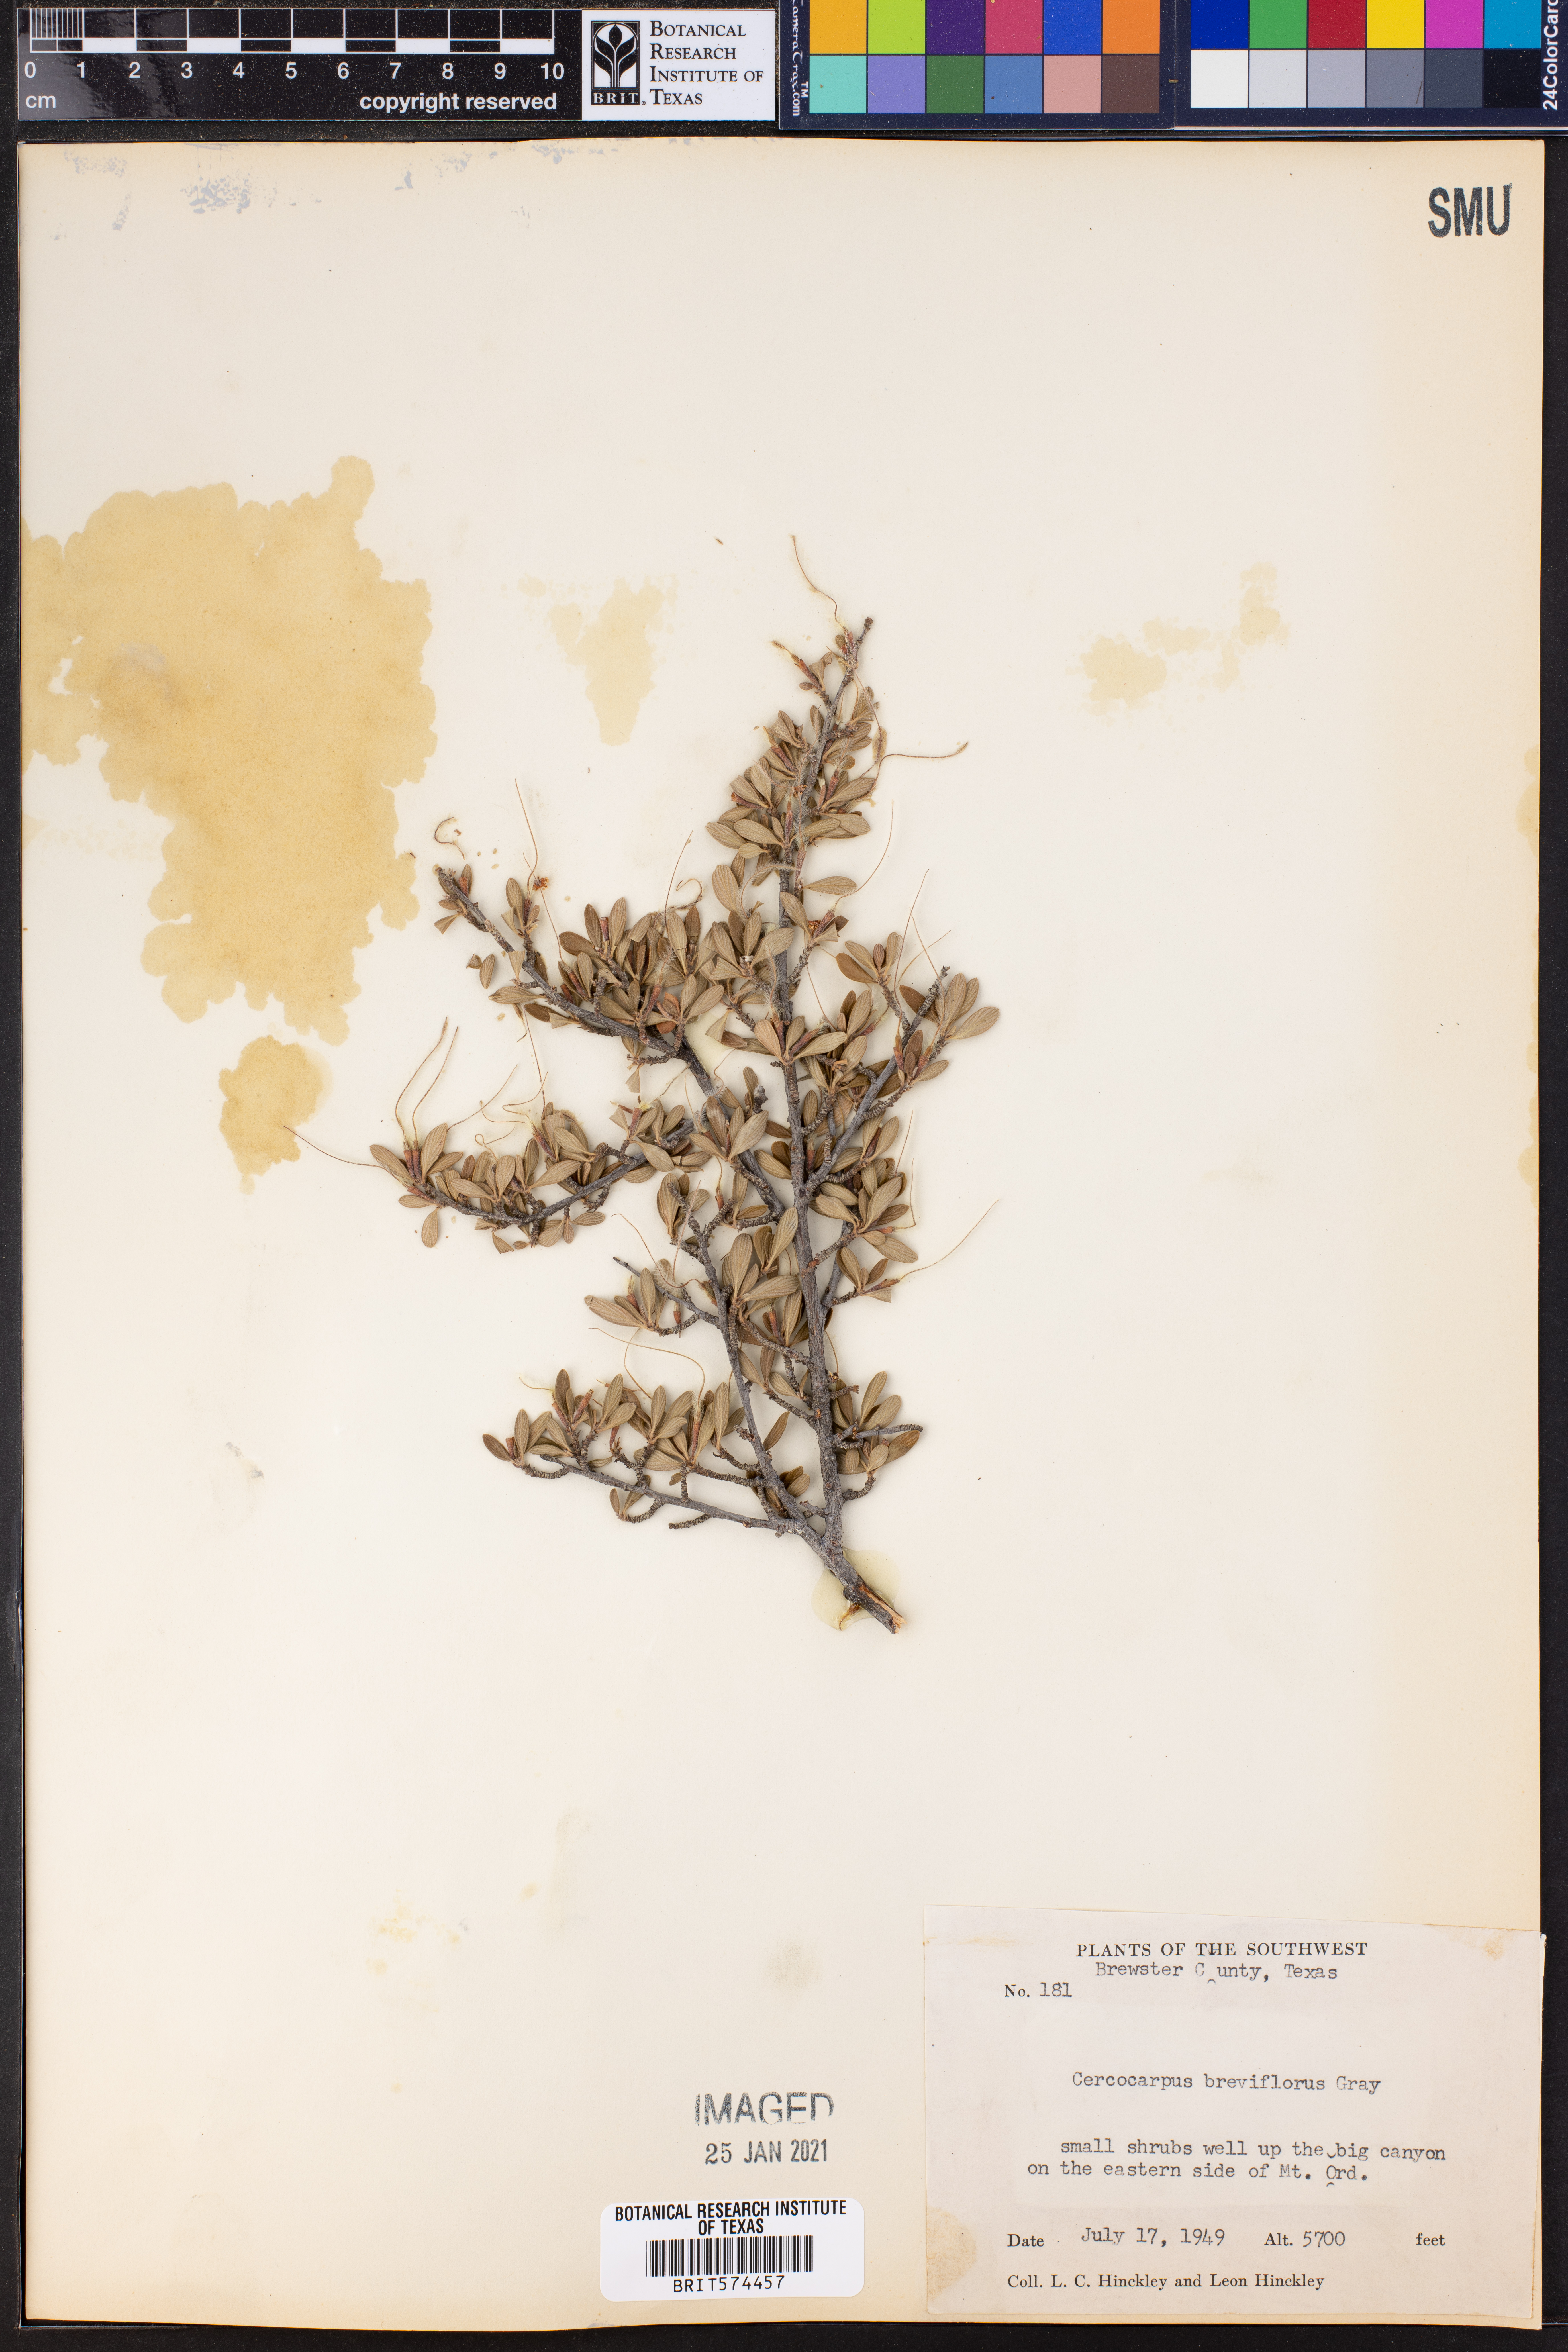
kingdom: Plantae
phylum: Tracheophyta
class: Magnoliopsida
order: Rosales
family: Rosaceae
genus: Cercocarpus
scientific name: Cercocarpus breviflorus
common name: Wright's mountain-mahogany
